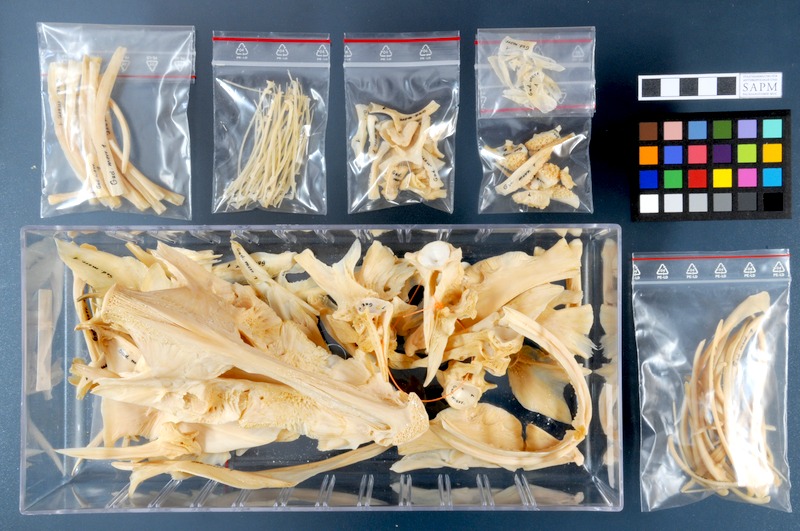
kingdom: Animalia
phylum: Chordata
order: Gadiformes
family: Gadidae
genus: Gadus
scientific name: Gadus morhua
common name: Atlantic cod
